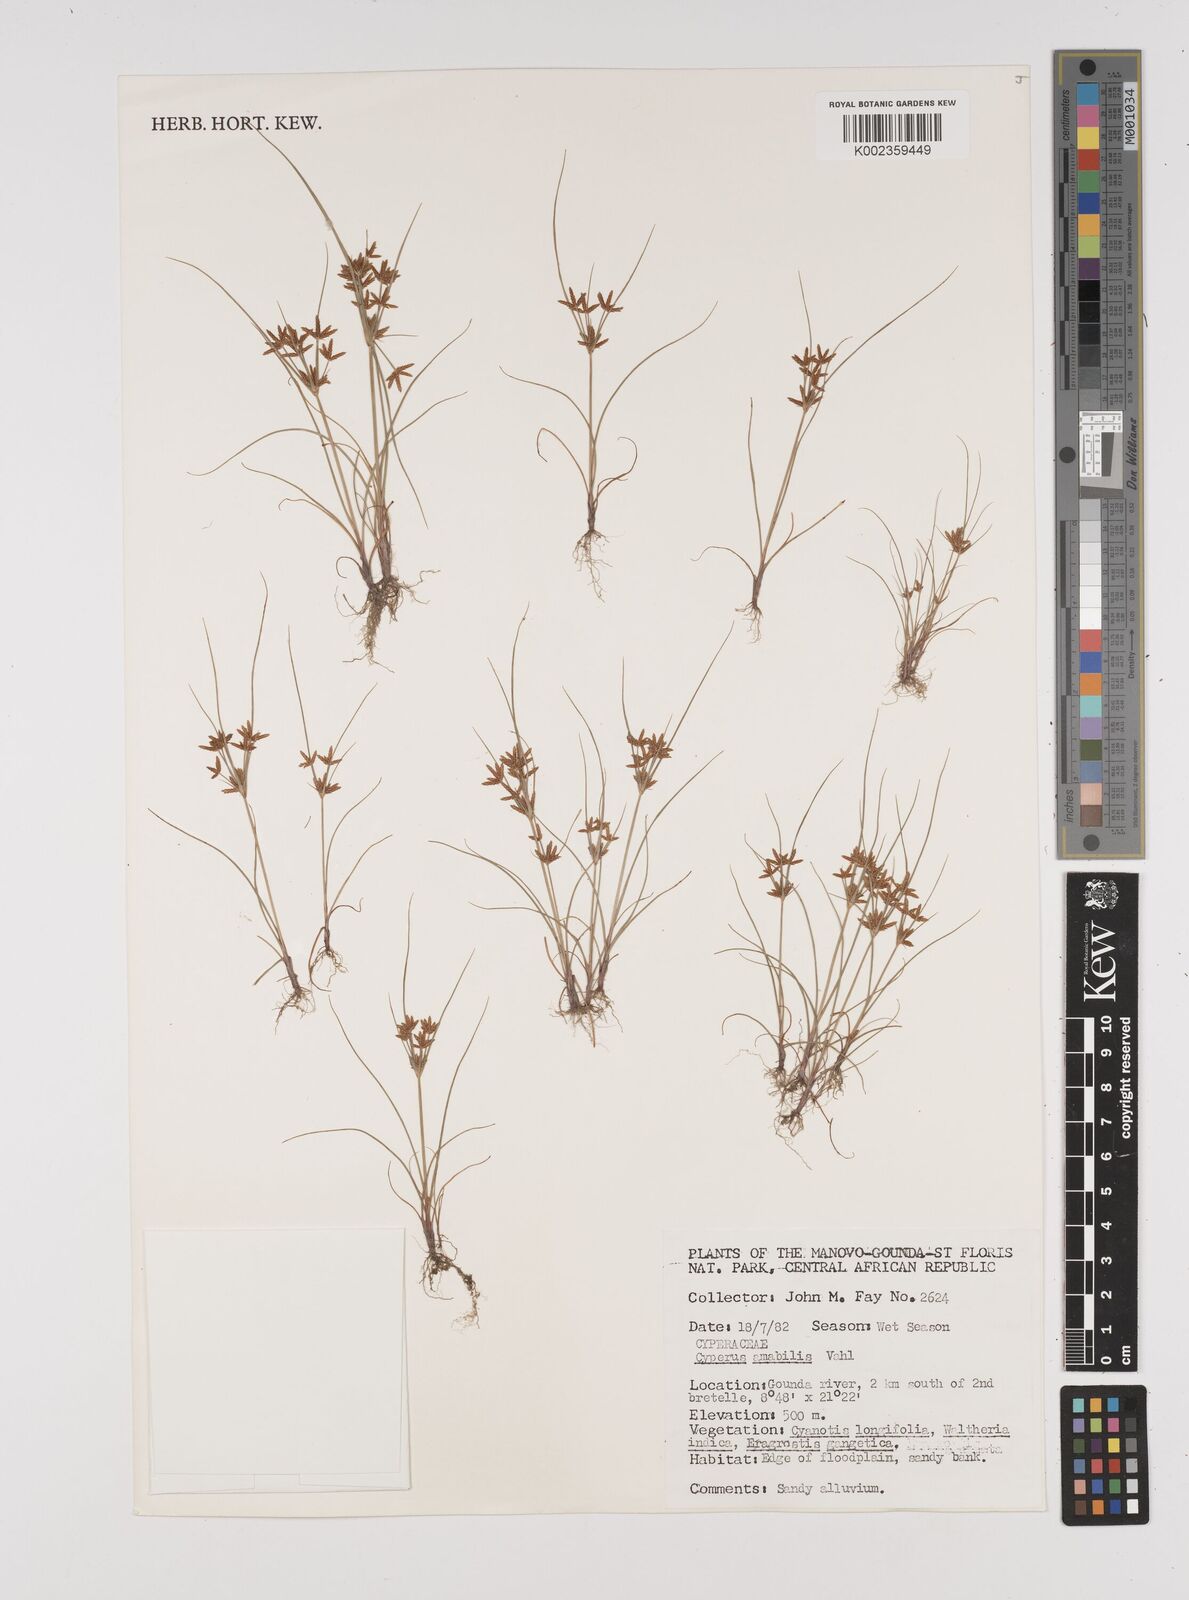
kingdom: Plantae
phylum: Tracheophyta
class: Liliopsida
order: Poales
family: Cyperaceae
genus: Cyperus
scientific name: Cyperus amabilis
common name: Foothill flat sedge
